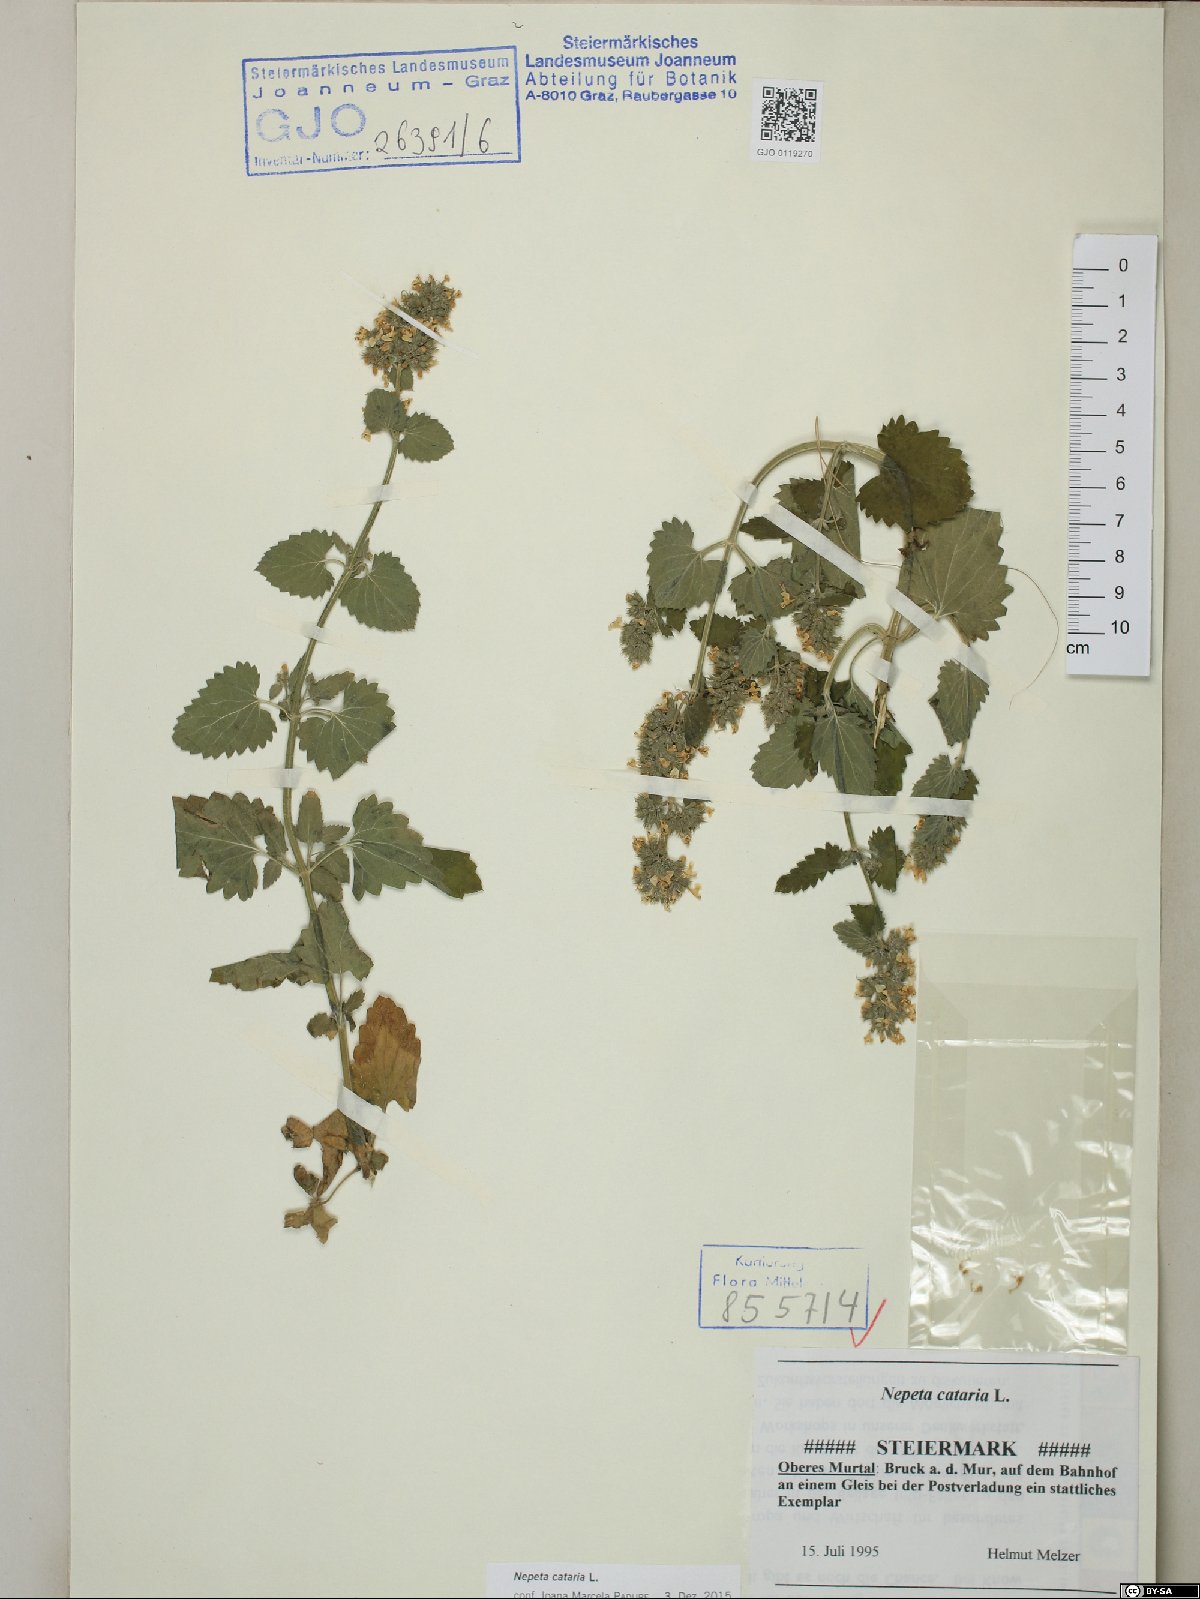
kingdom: Plantae
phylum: Tracheophyta
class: Magnoliopsida
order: Lamiales
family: Lamiaceae
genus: Nepeta
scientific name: Nepeta cataria
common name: Catnip
